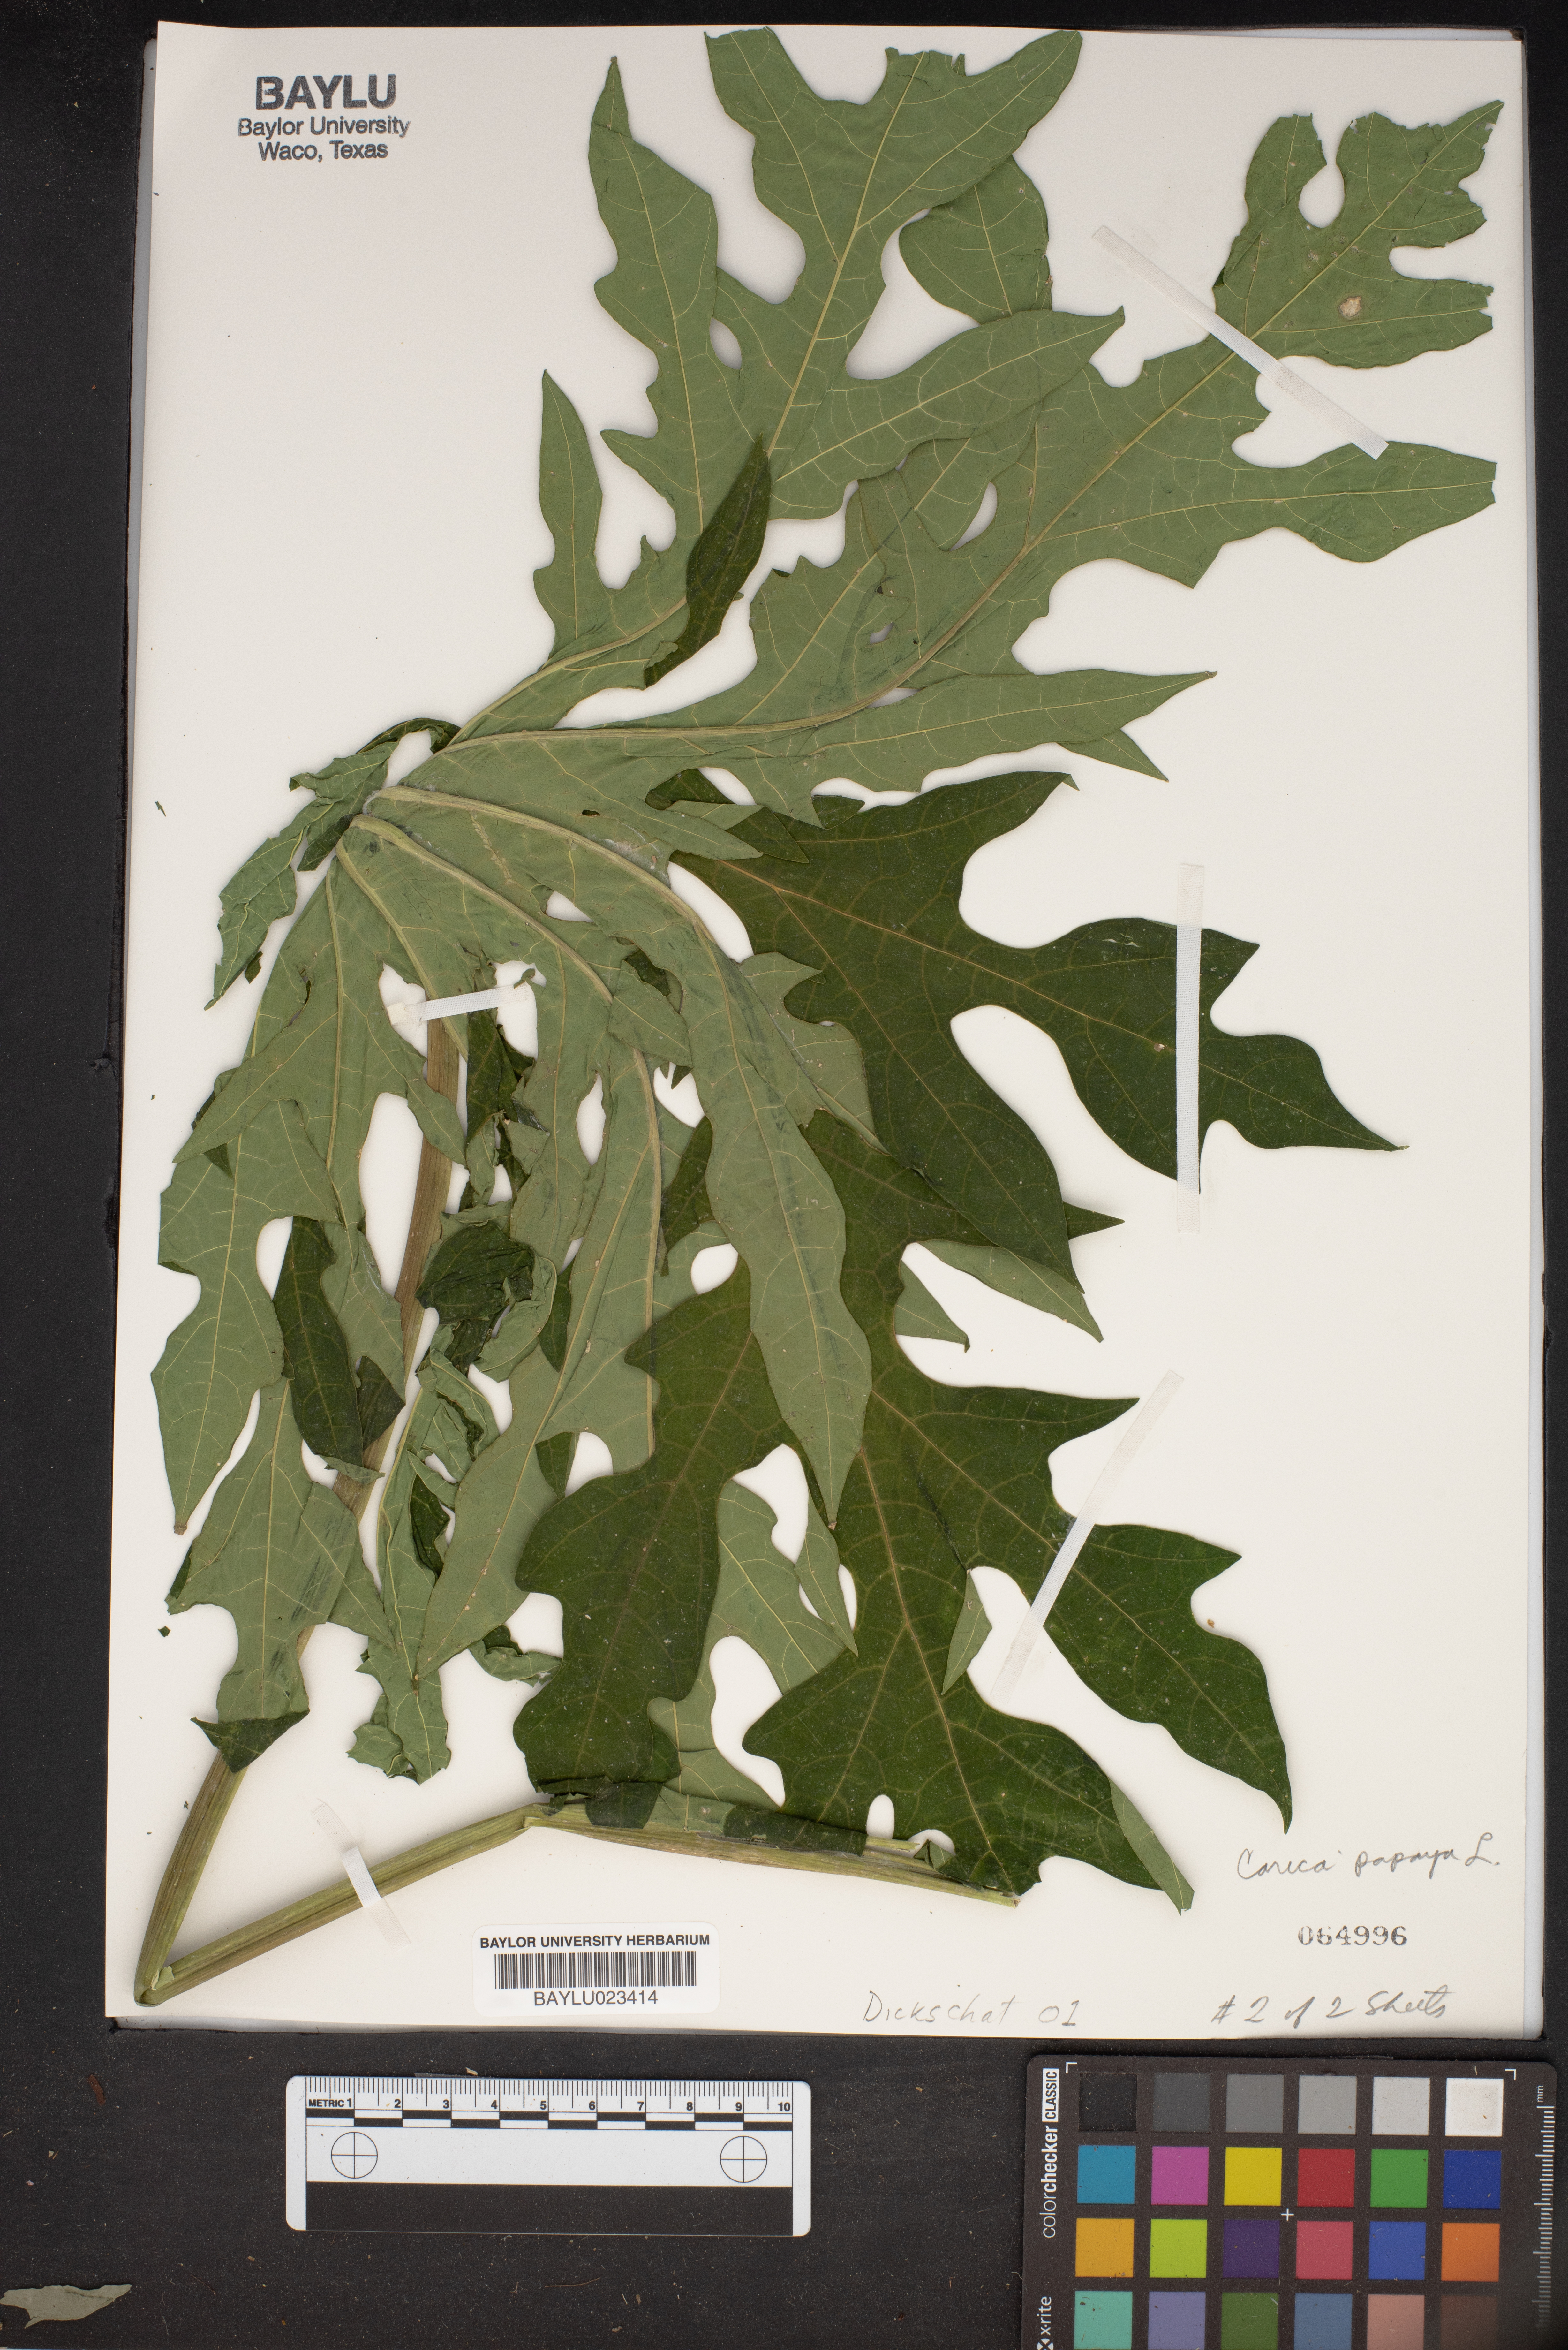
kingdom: Plantae
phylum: Tracheophyta
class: Magnoliopsida
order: Brassicales
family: Caricaceae
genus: Carica
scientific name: Carica papaya
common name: Papaya
